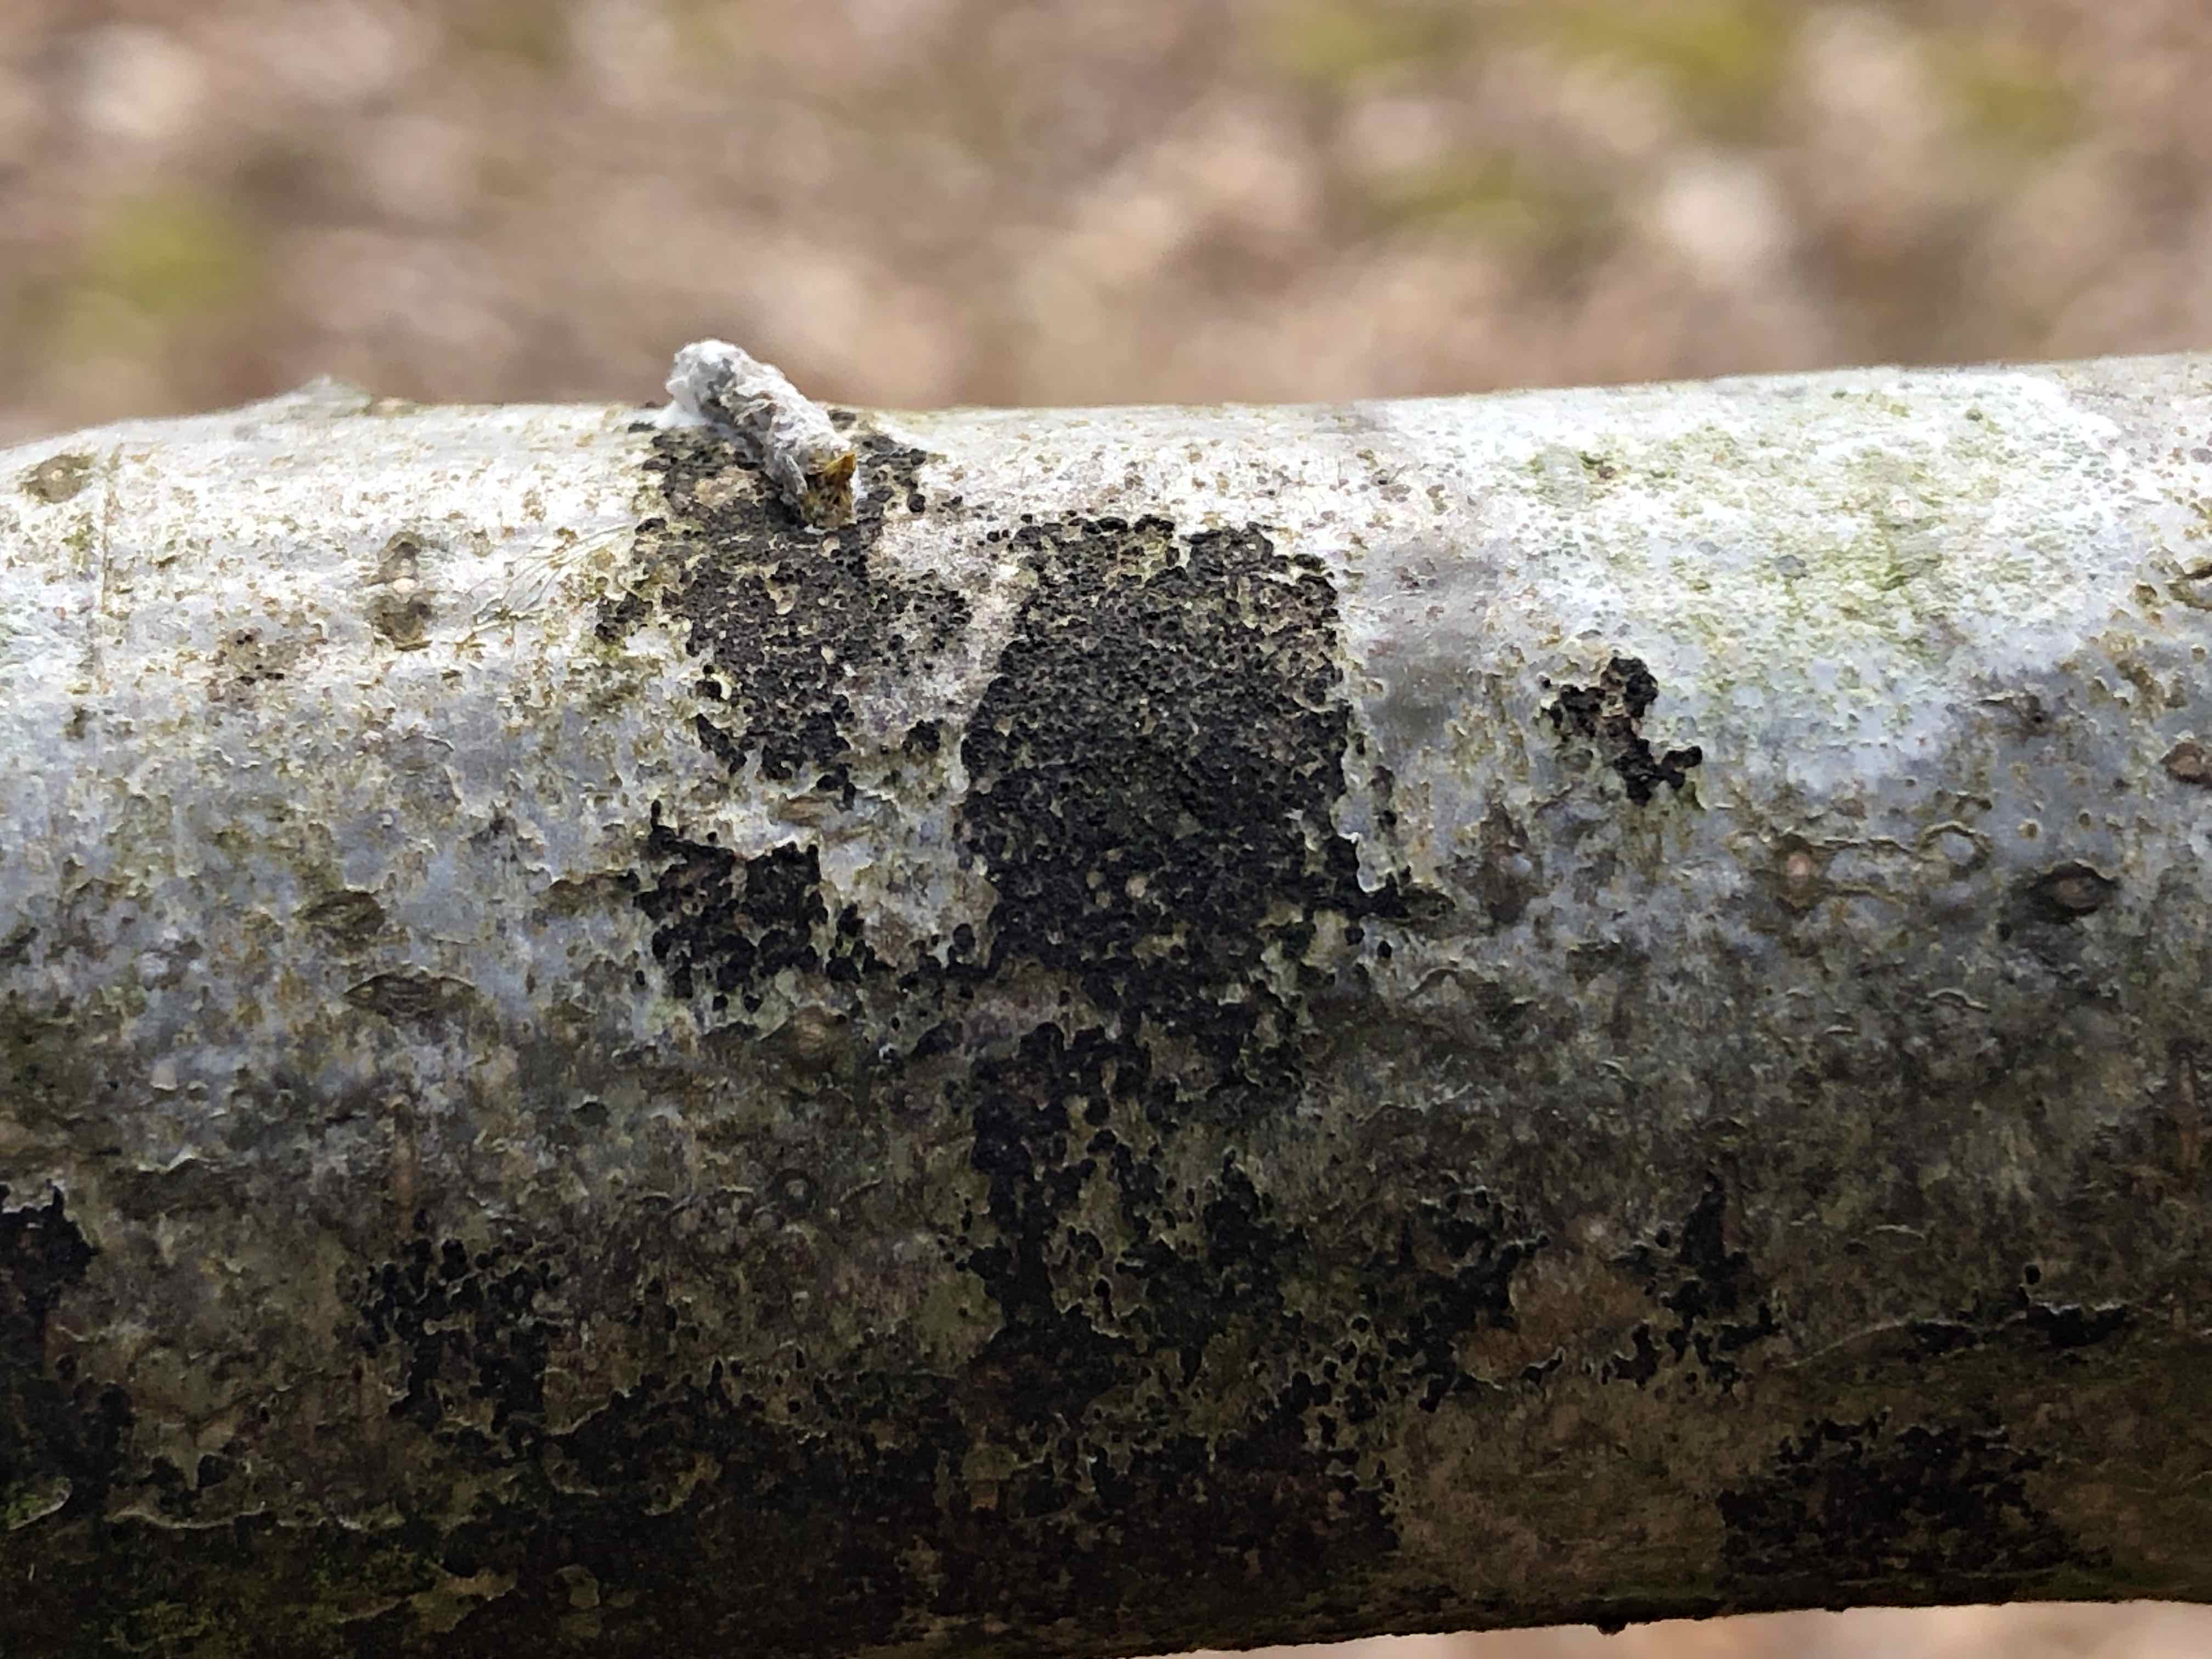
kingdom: Fungi
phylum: Ascomycota
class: Leotiomycetes
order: Rhytismatales
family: Ascodichaenaceae
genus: Ascodichaena
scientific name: Ascodichaena rugosa
